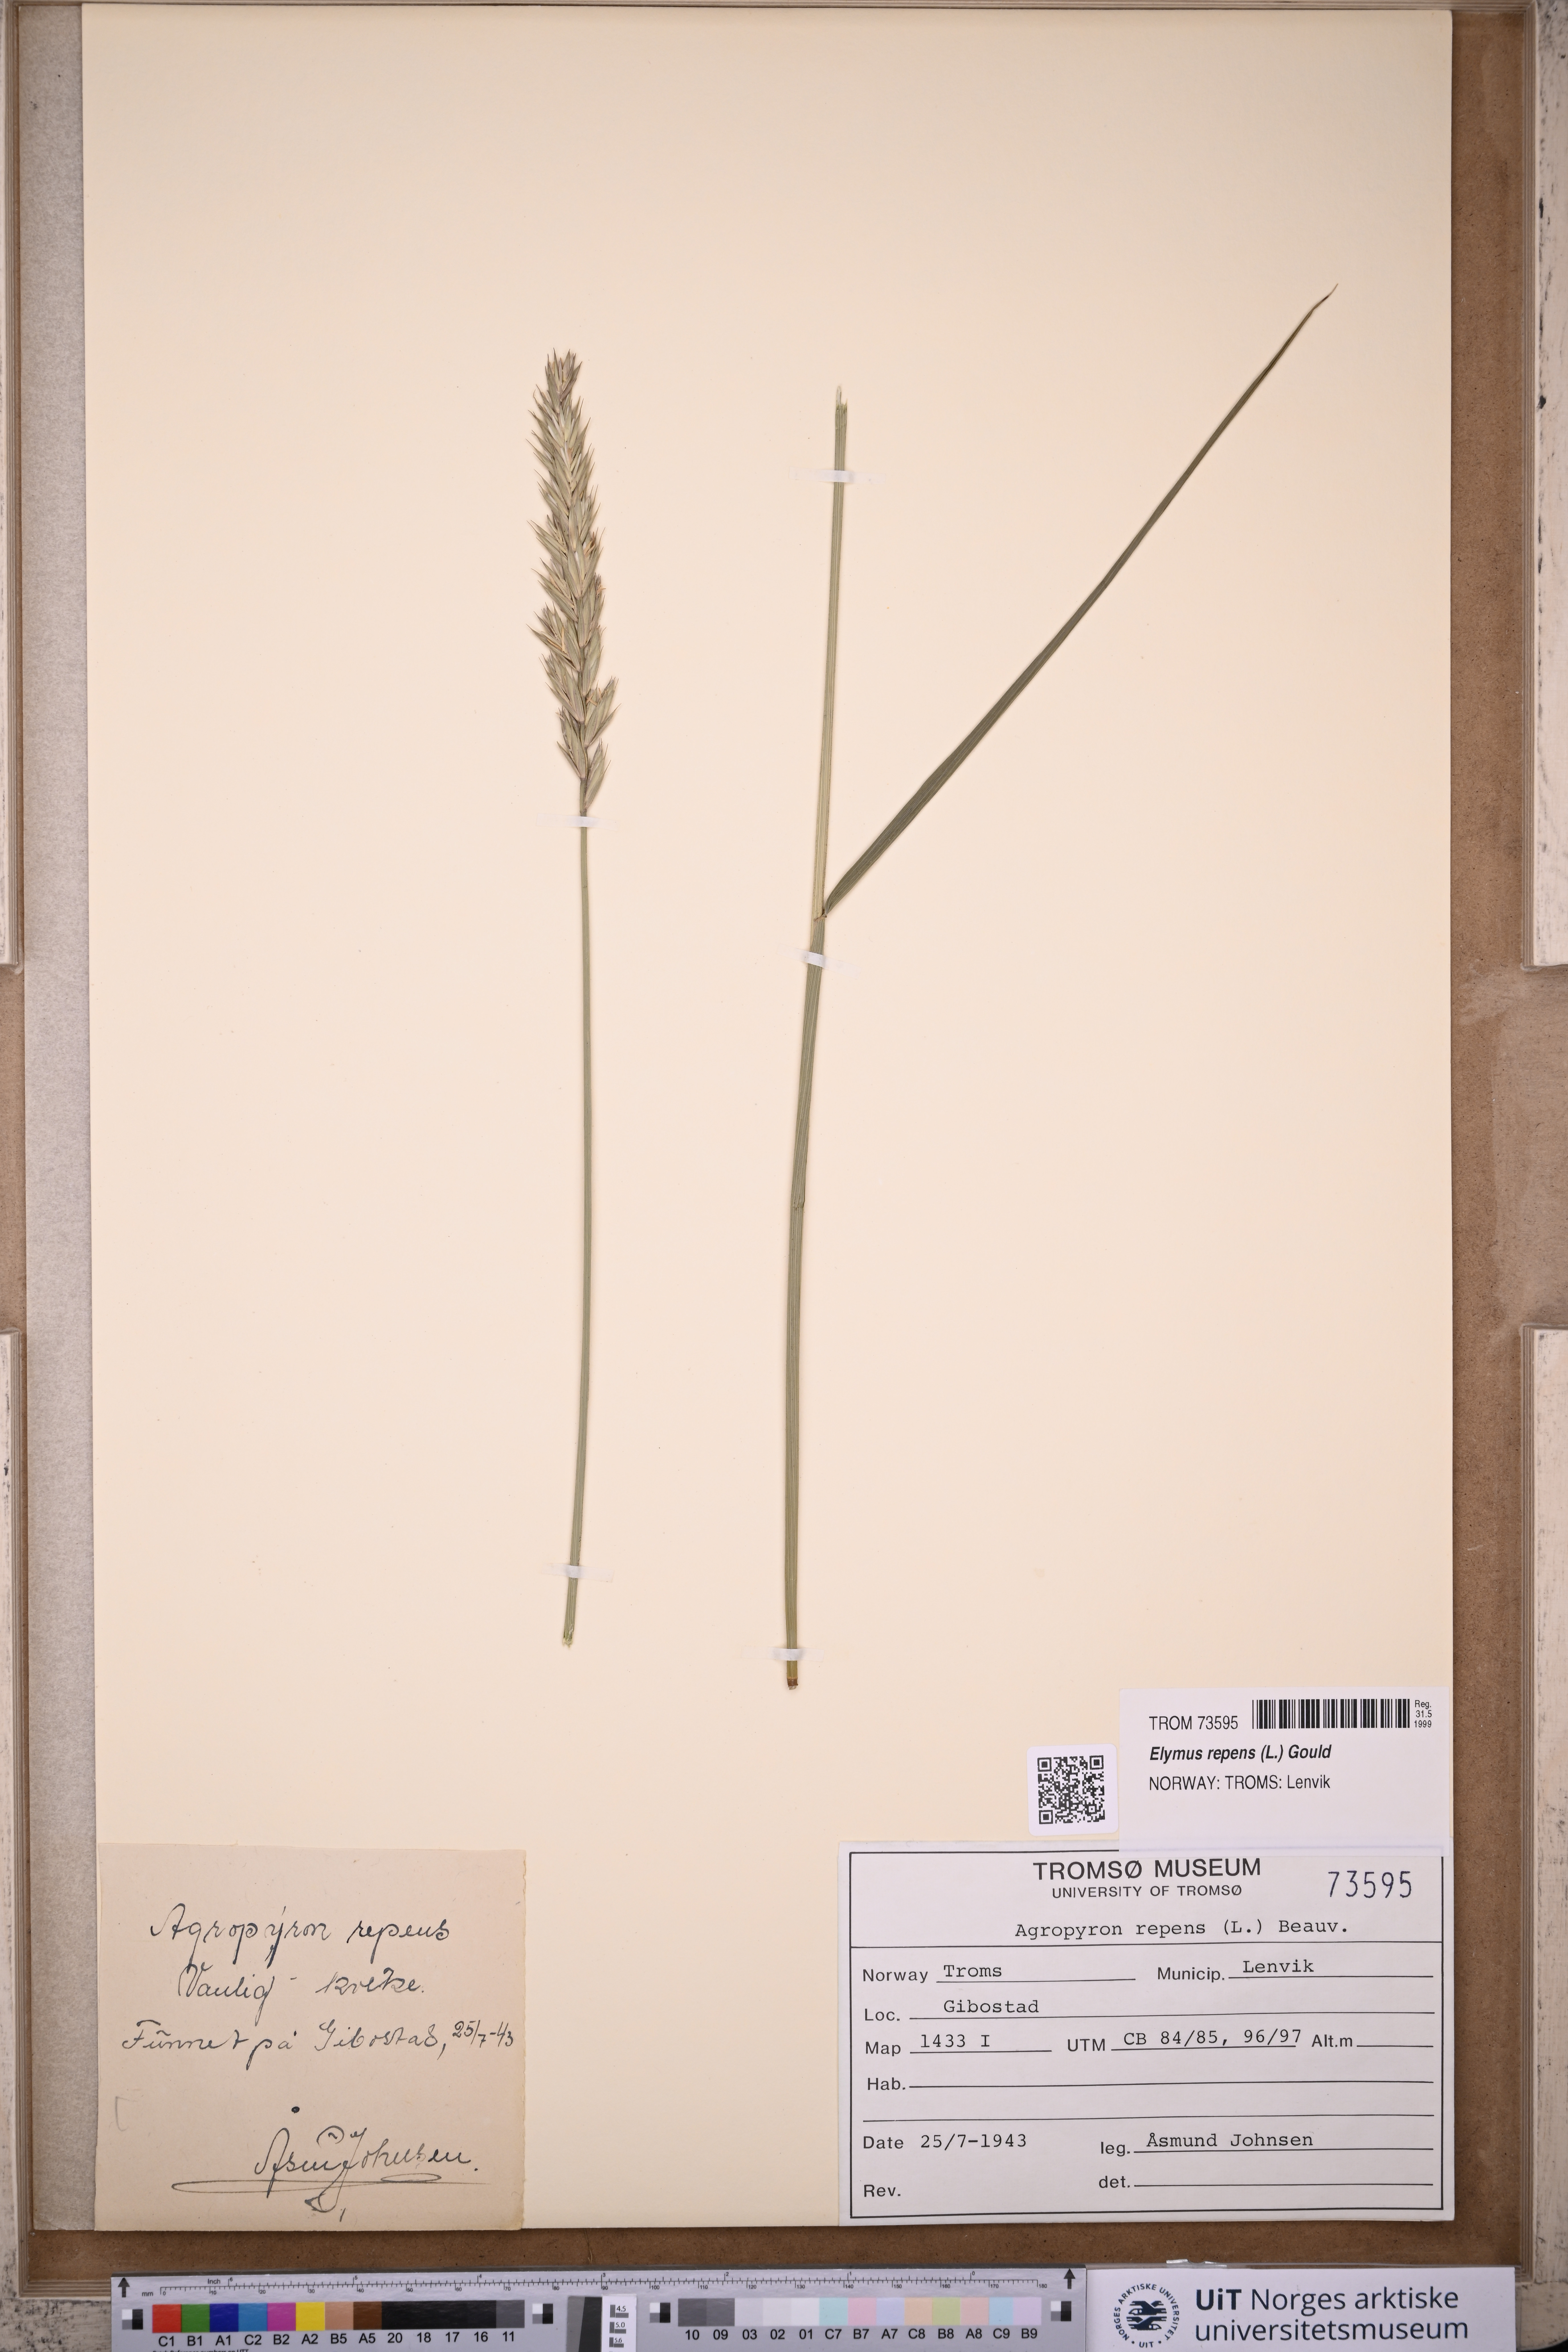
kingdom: Plantae
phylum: Tracheophyta
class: Liliopsida
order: Poales
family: Poaceae
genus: Elymus
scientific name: Elymus repens
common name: Quackgrass
